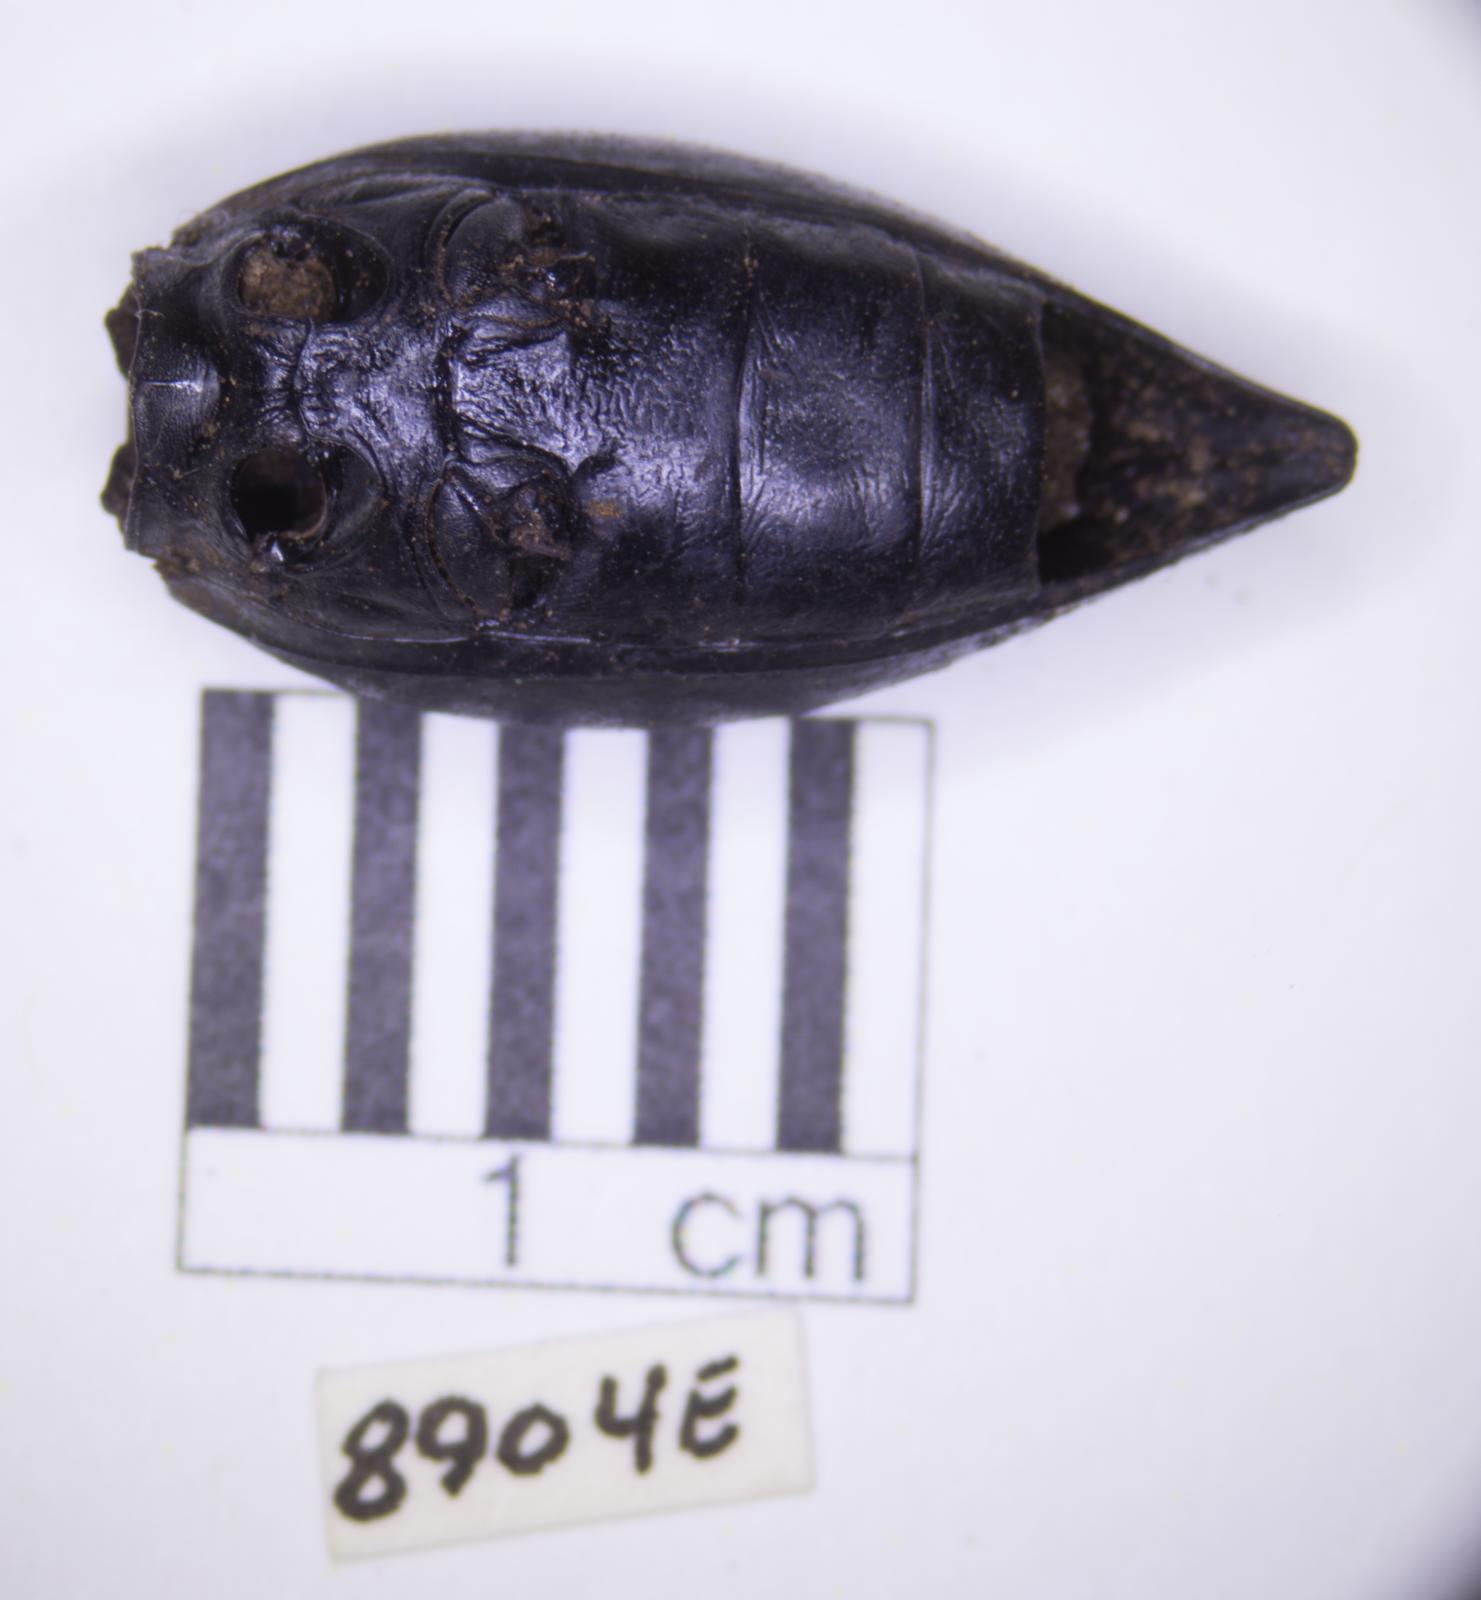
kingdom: Animalia
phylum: Arthropoda
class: Insecta
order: Coleoptera
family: Tenebrionidae
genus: Eleodes
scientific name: Eleodes acuticauda
